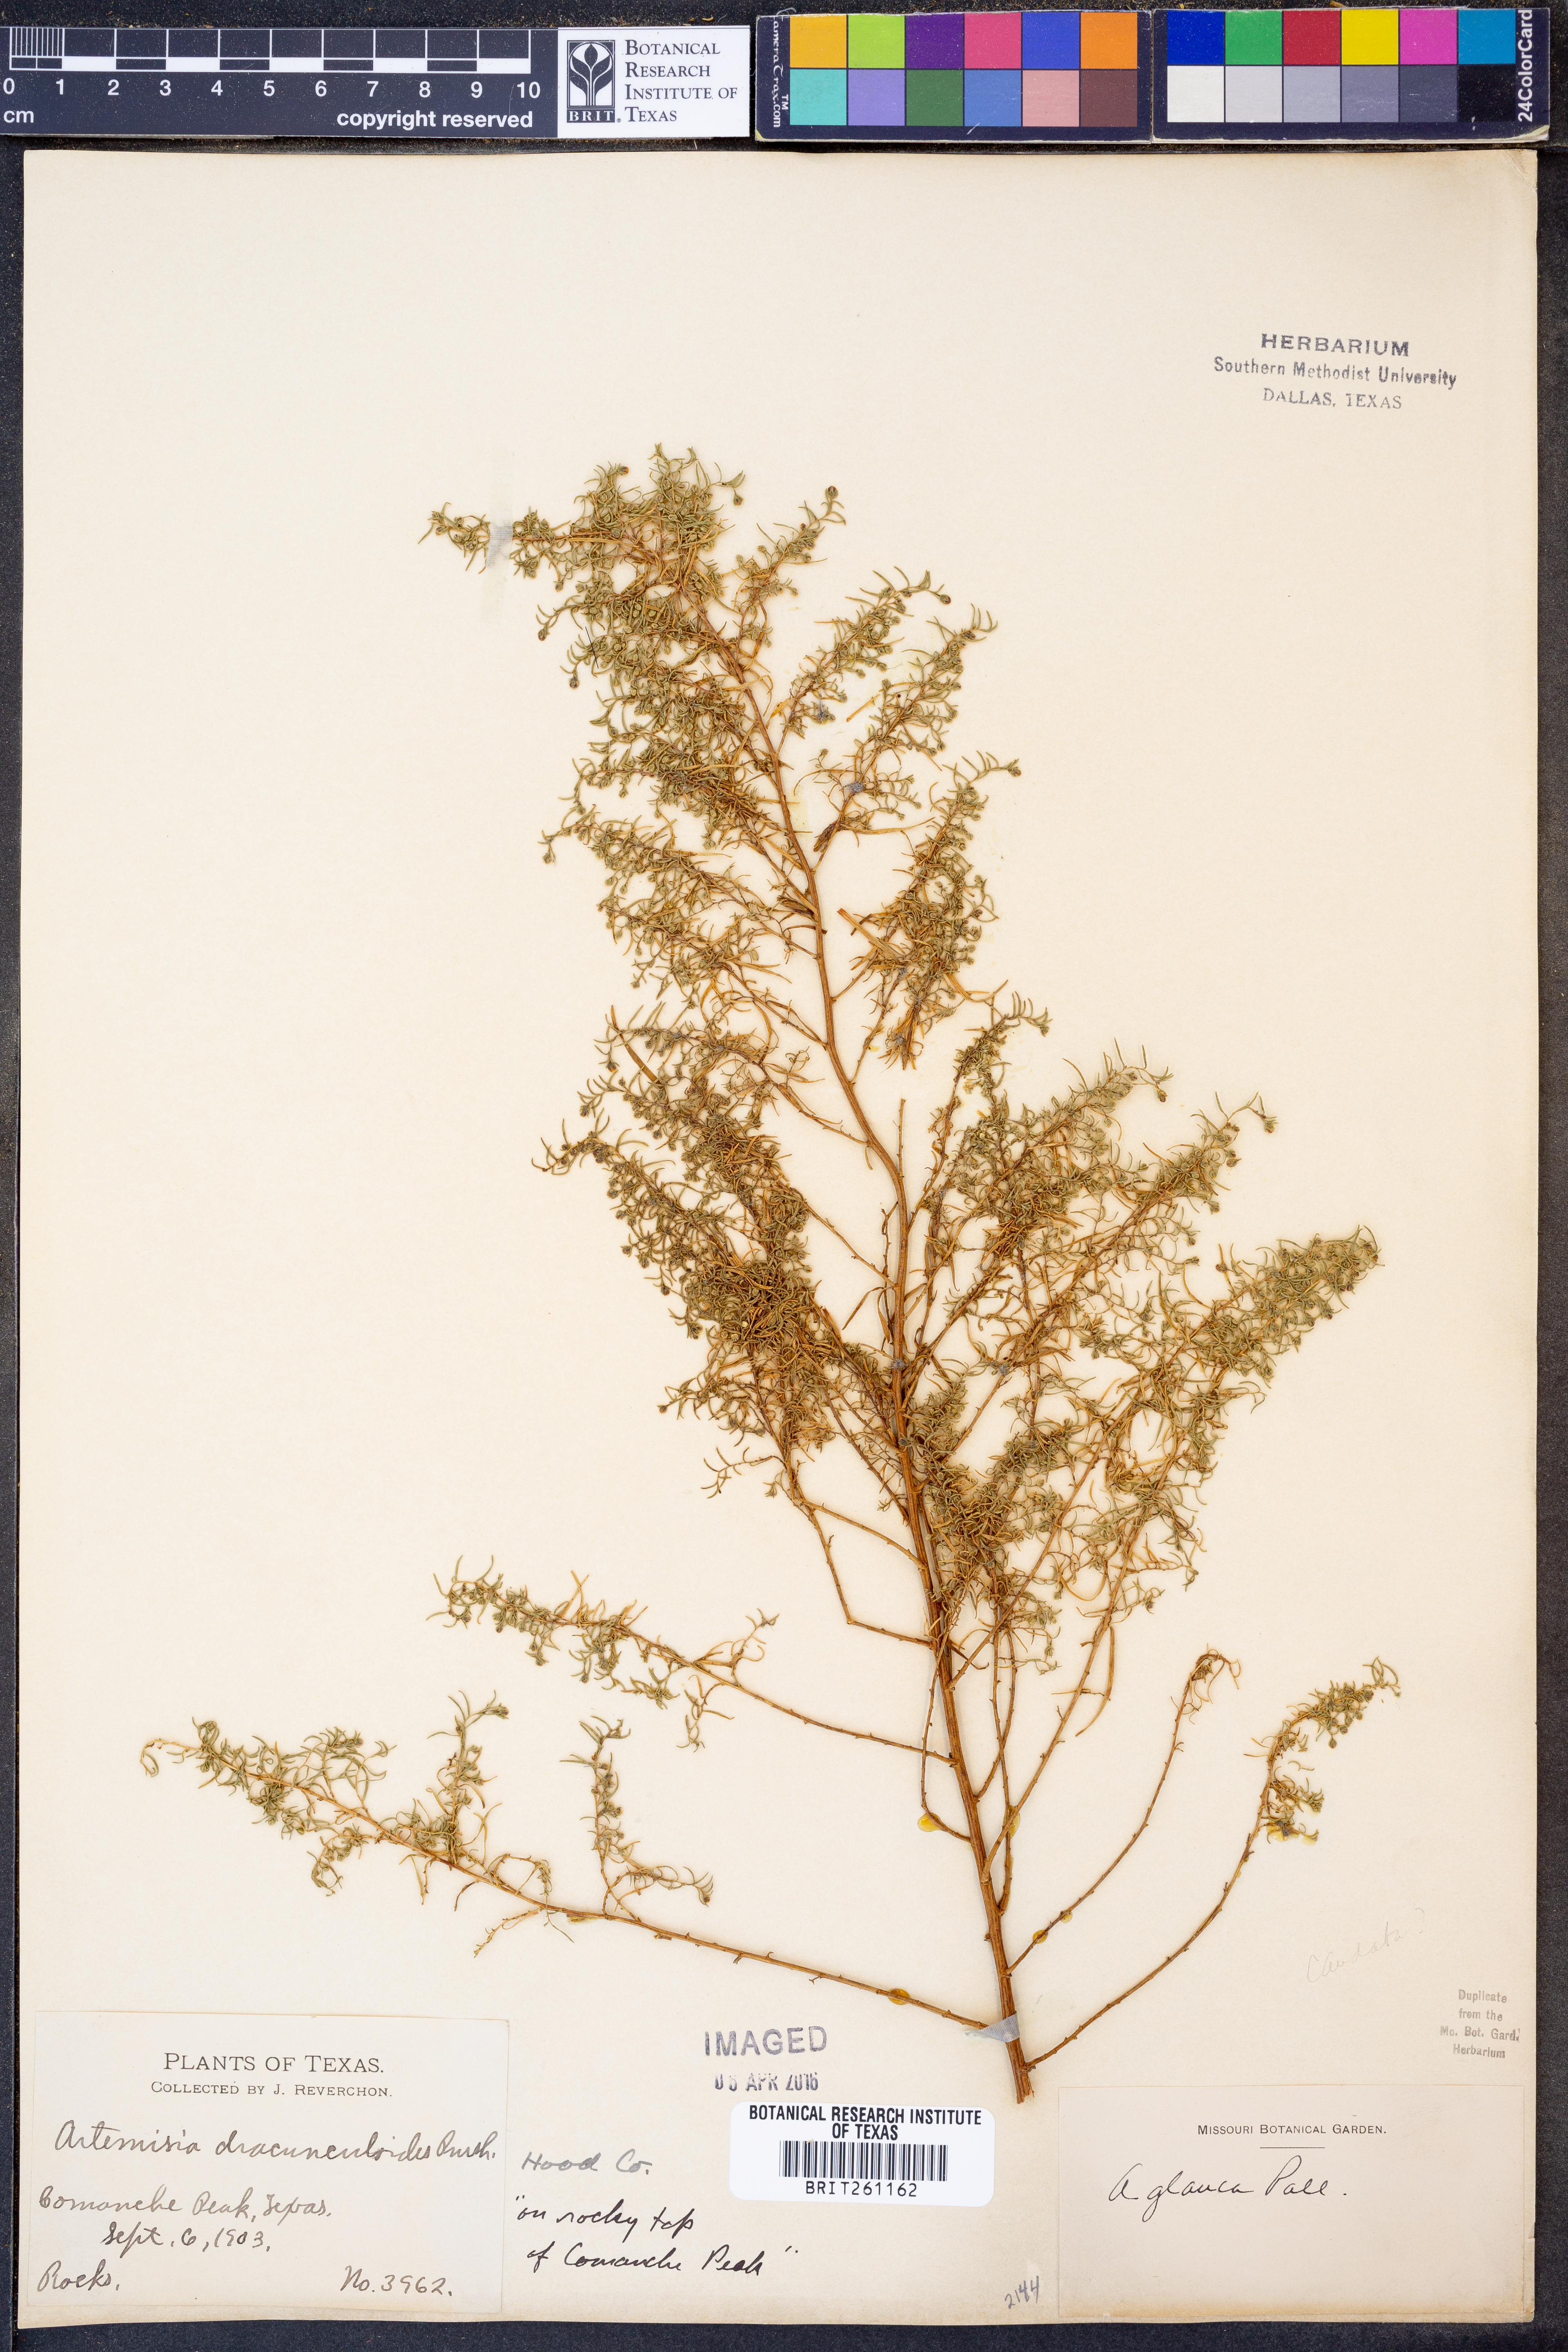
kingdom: Plantae
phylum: Tracheophyta
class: Magnoliopsida
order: Asterales
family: Asteraceae
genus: Artemisia
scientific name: Artemisia glauca
